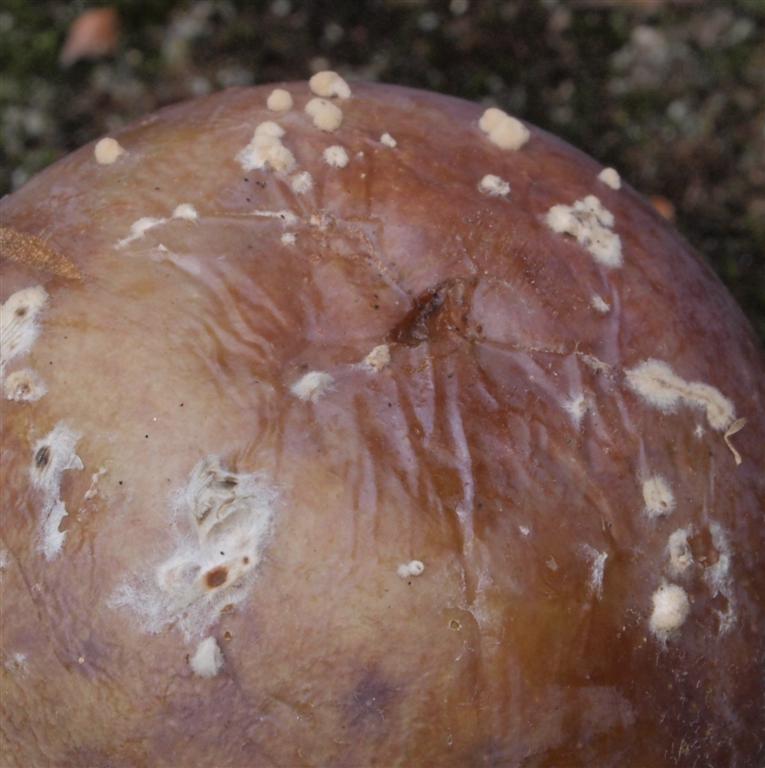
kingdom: Fungi
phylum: Ascomycota
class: Leotiomycetes
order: Helotiales
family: Sclerotiniaceae
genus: Monilinia
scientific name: Monilinia fructigena
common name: æble-knoldskive
